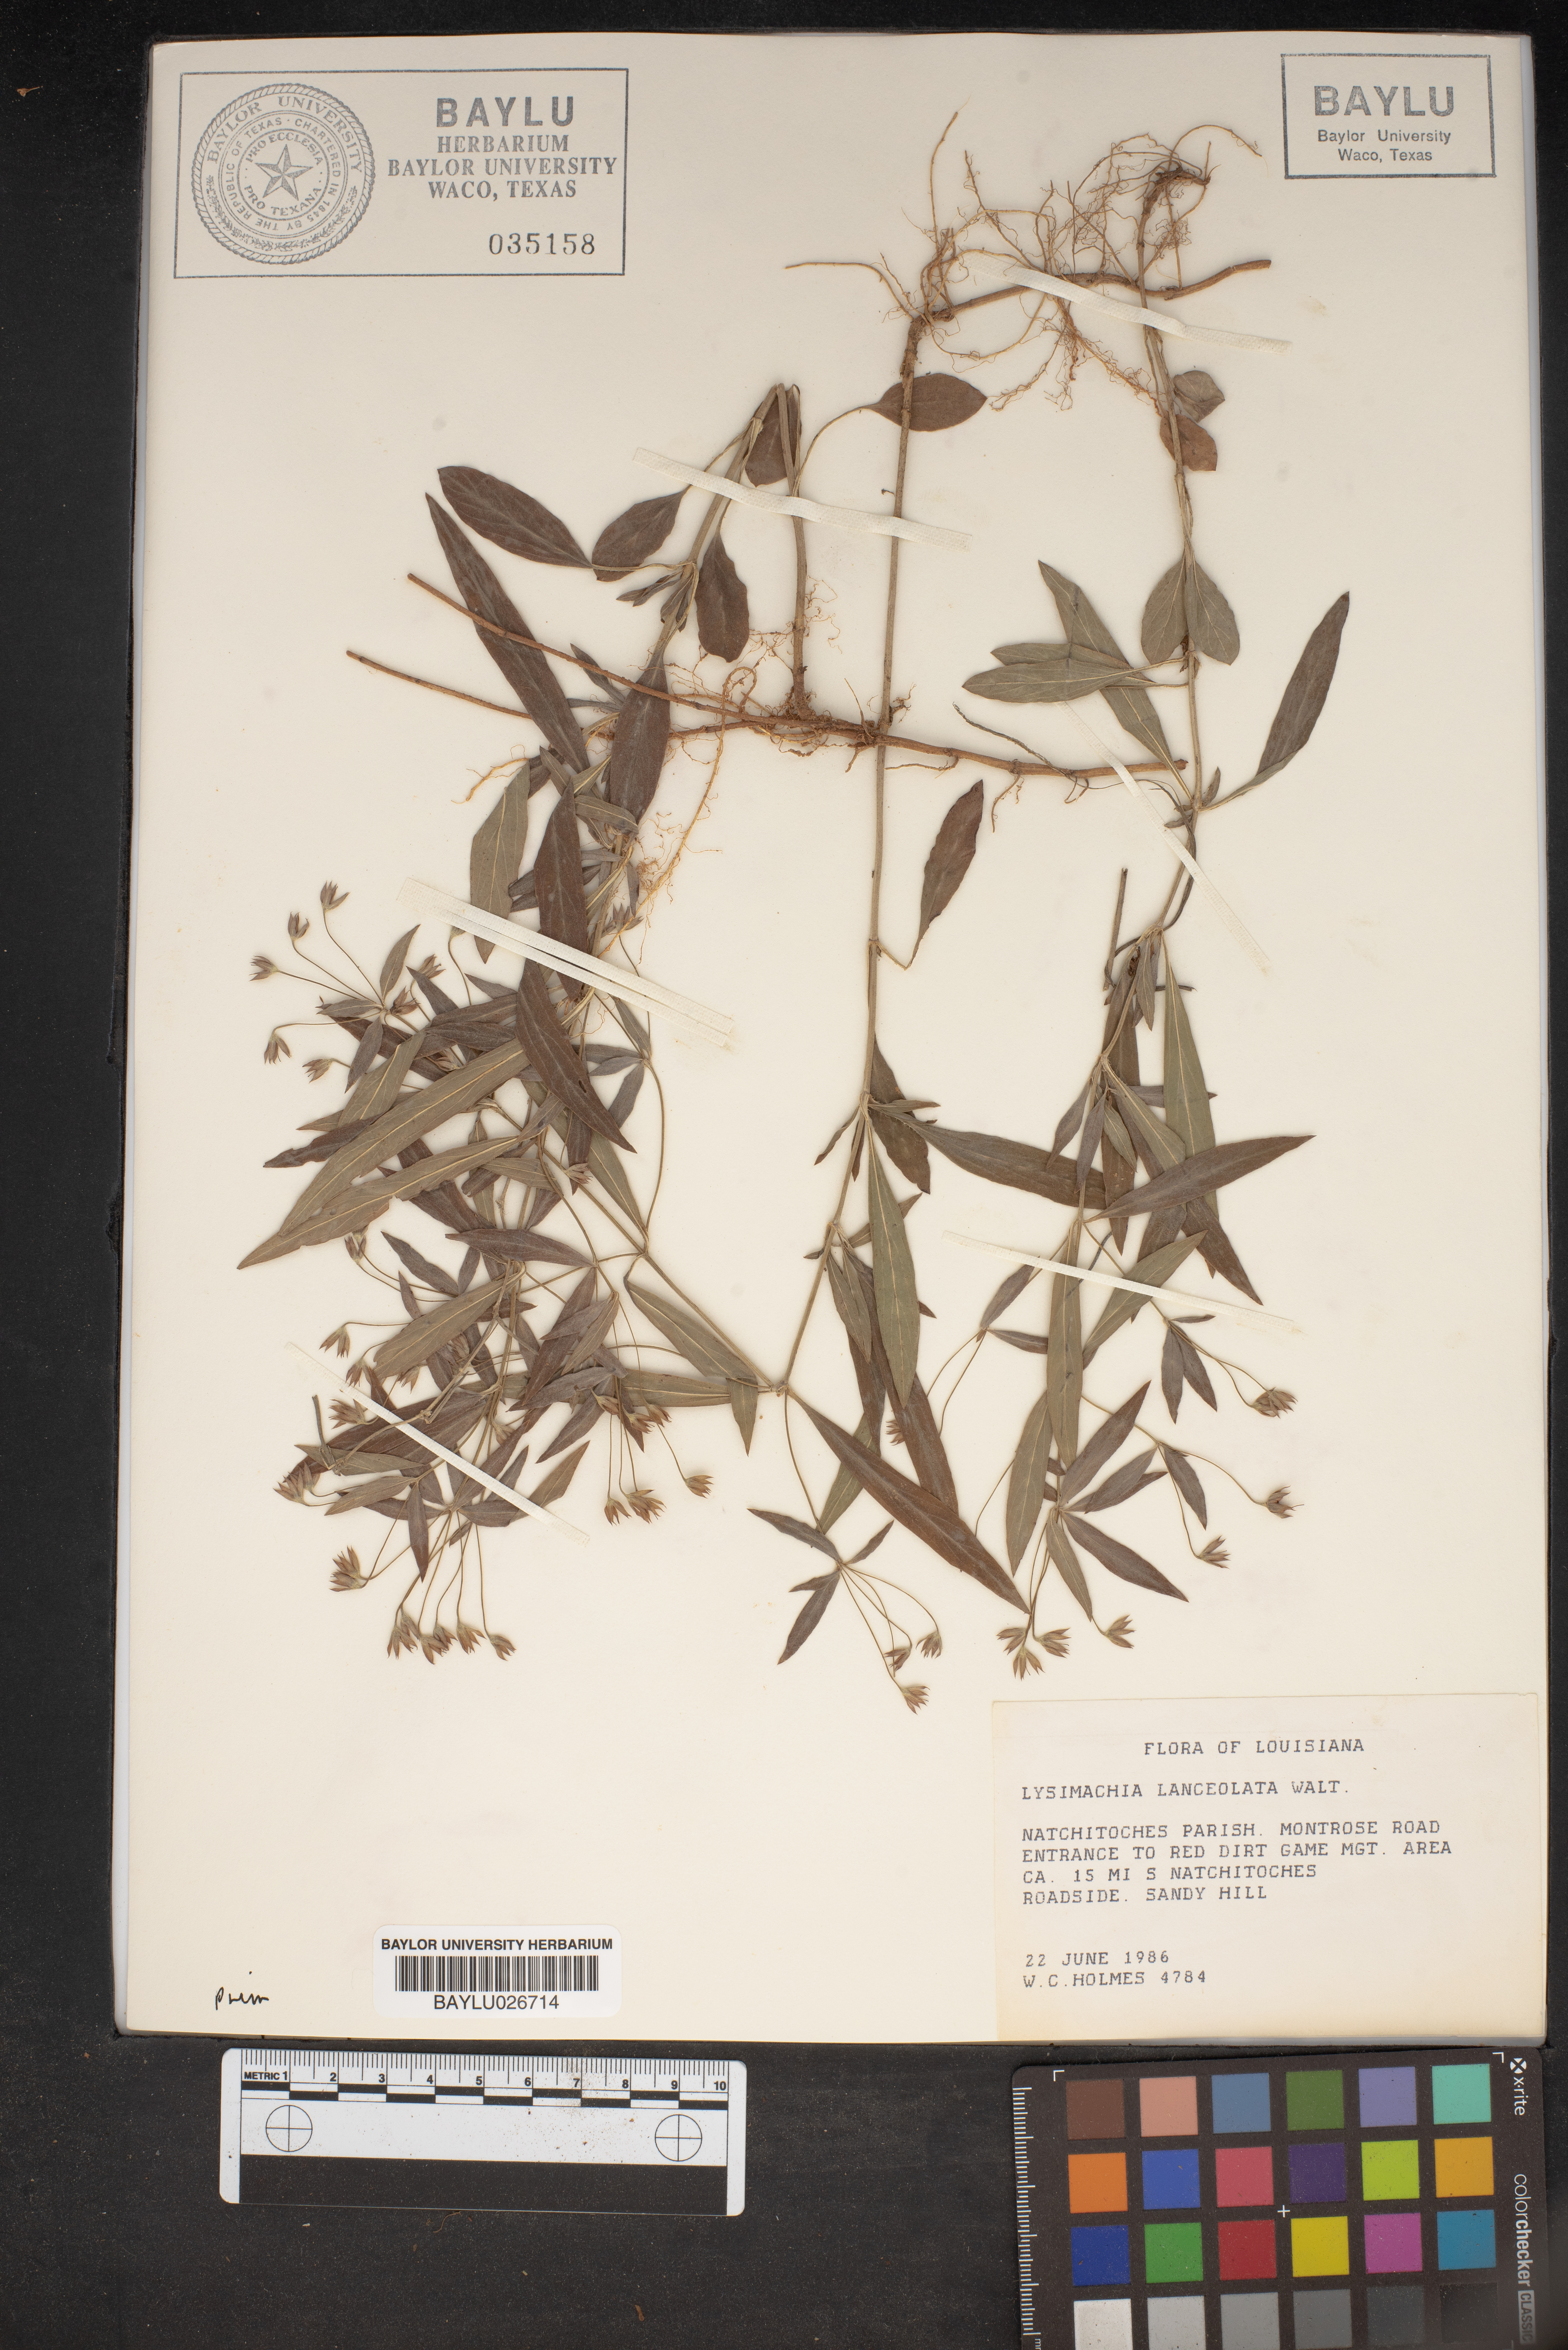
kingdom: Plantae
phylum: Tracheophyta
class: Magnoliopsida
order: Ericales
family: Primulaceae
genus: Lysimachia
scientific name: Lysimachia lanceolata
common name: Lance-leaved loosestrife
